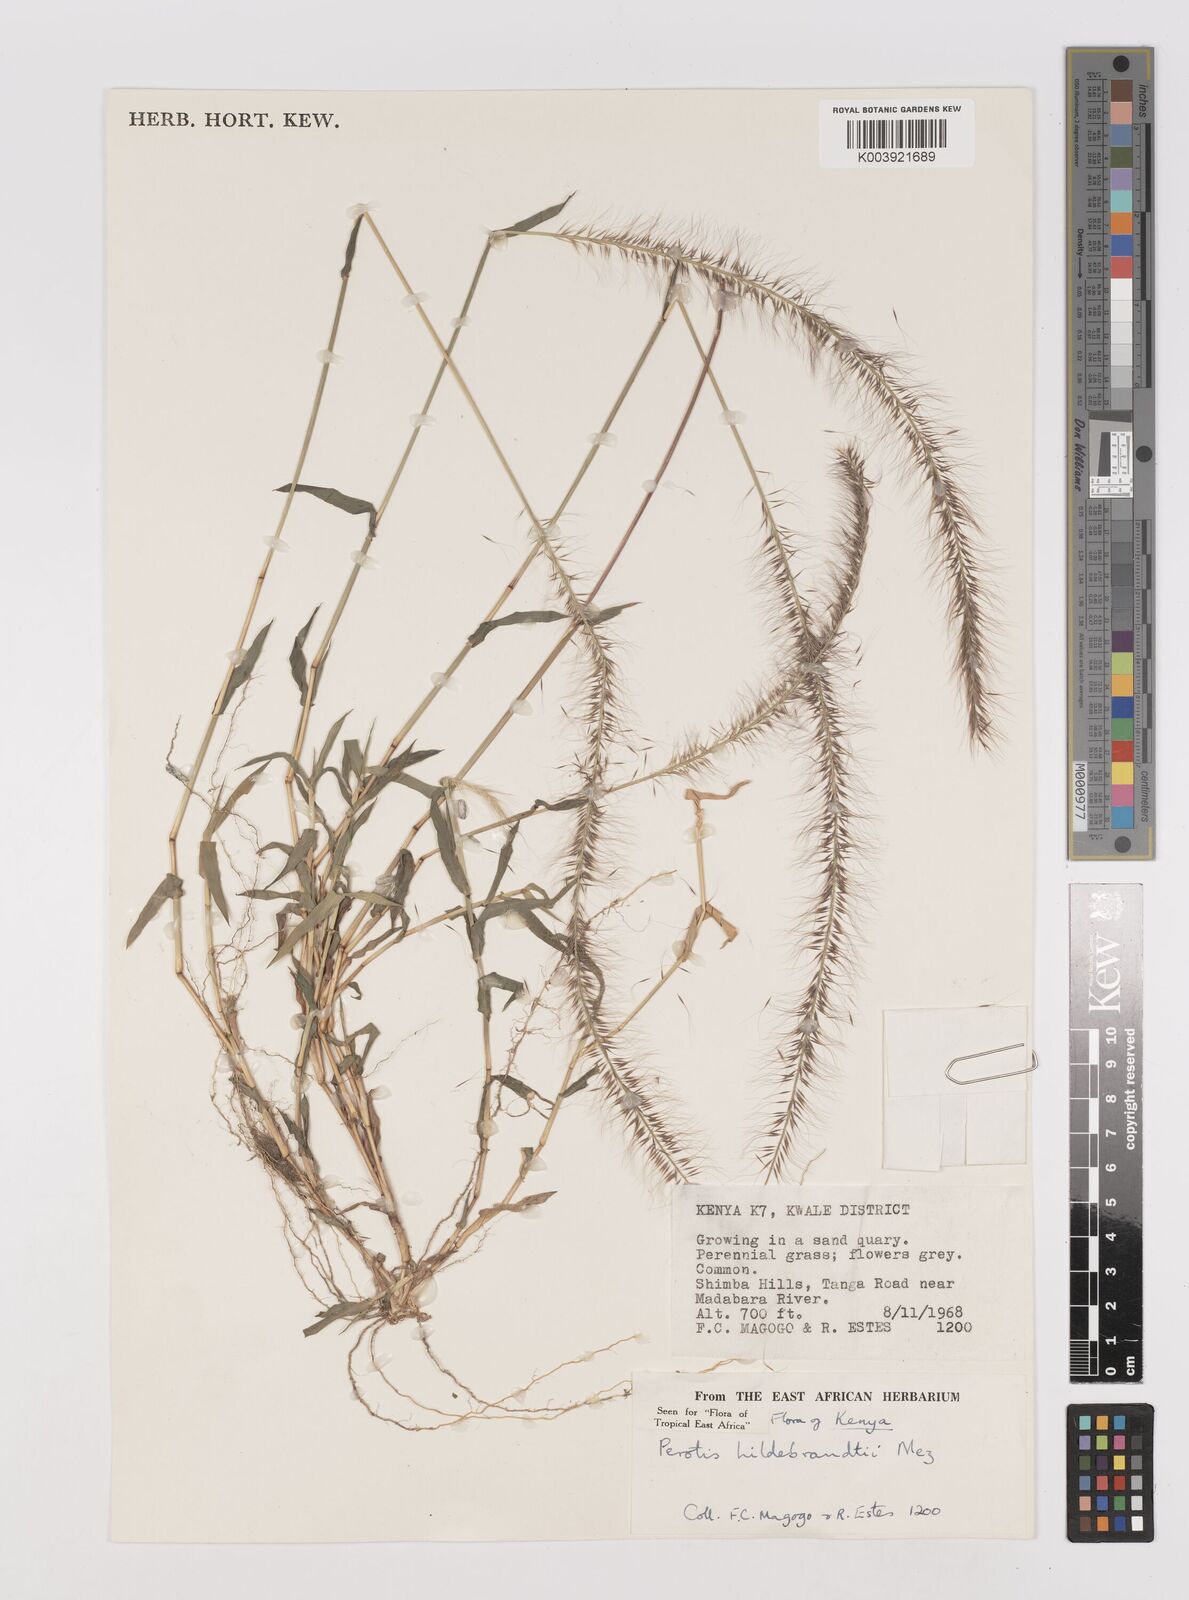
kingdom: Plantae
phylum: Tracheophyta
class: Liliopsida
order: Poales
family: Poaceae
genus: Perotis
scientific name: Perotis hildebrandtii
